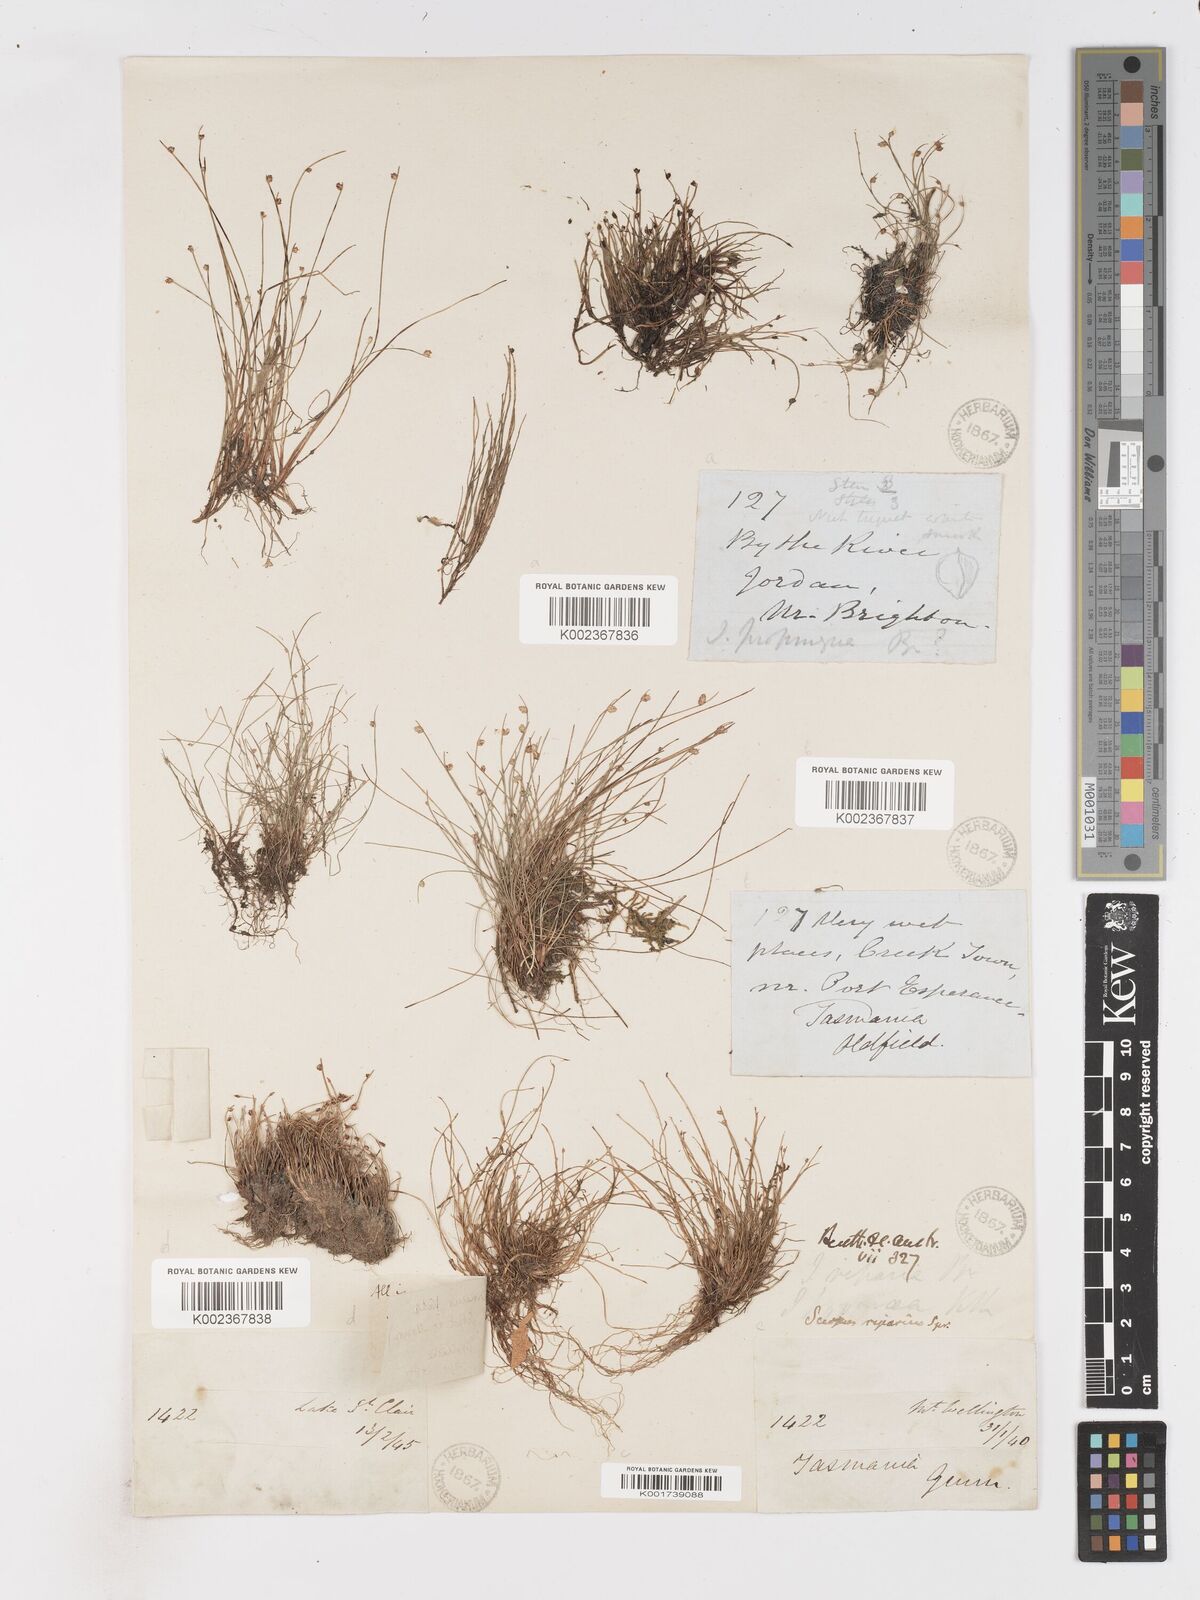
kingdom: Plantae
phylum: Tracheophyta
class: Liliopsida
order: Poales
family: Cyperaceae
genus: Isolepis
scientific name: Isolepis cernua
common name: Slender club-rush
